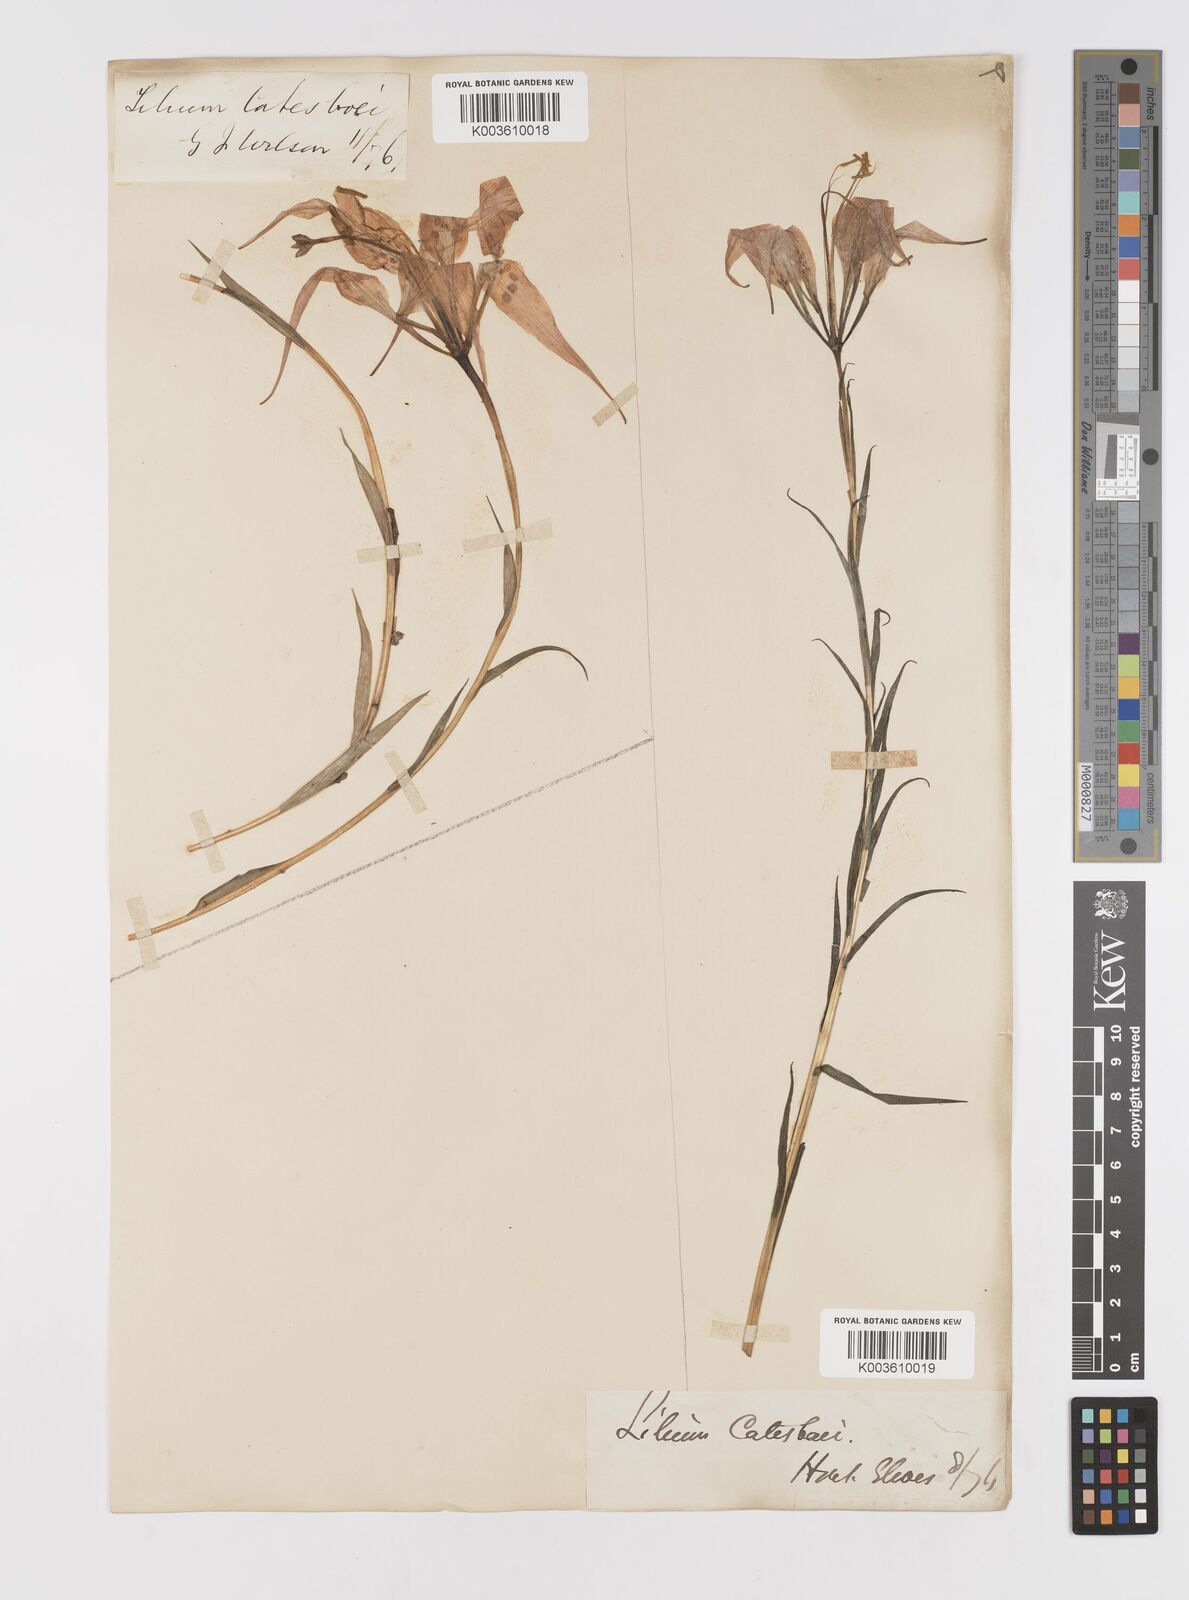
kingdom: Plantae
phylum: Tracheophyta
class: Liliopsida
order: Liliales
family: Liliaceae
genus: Lilium
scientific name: Lilium catesbaei
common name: Catesby's lily
